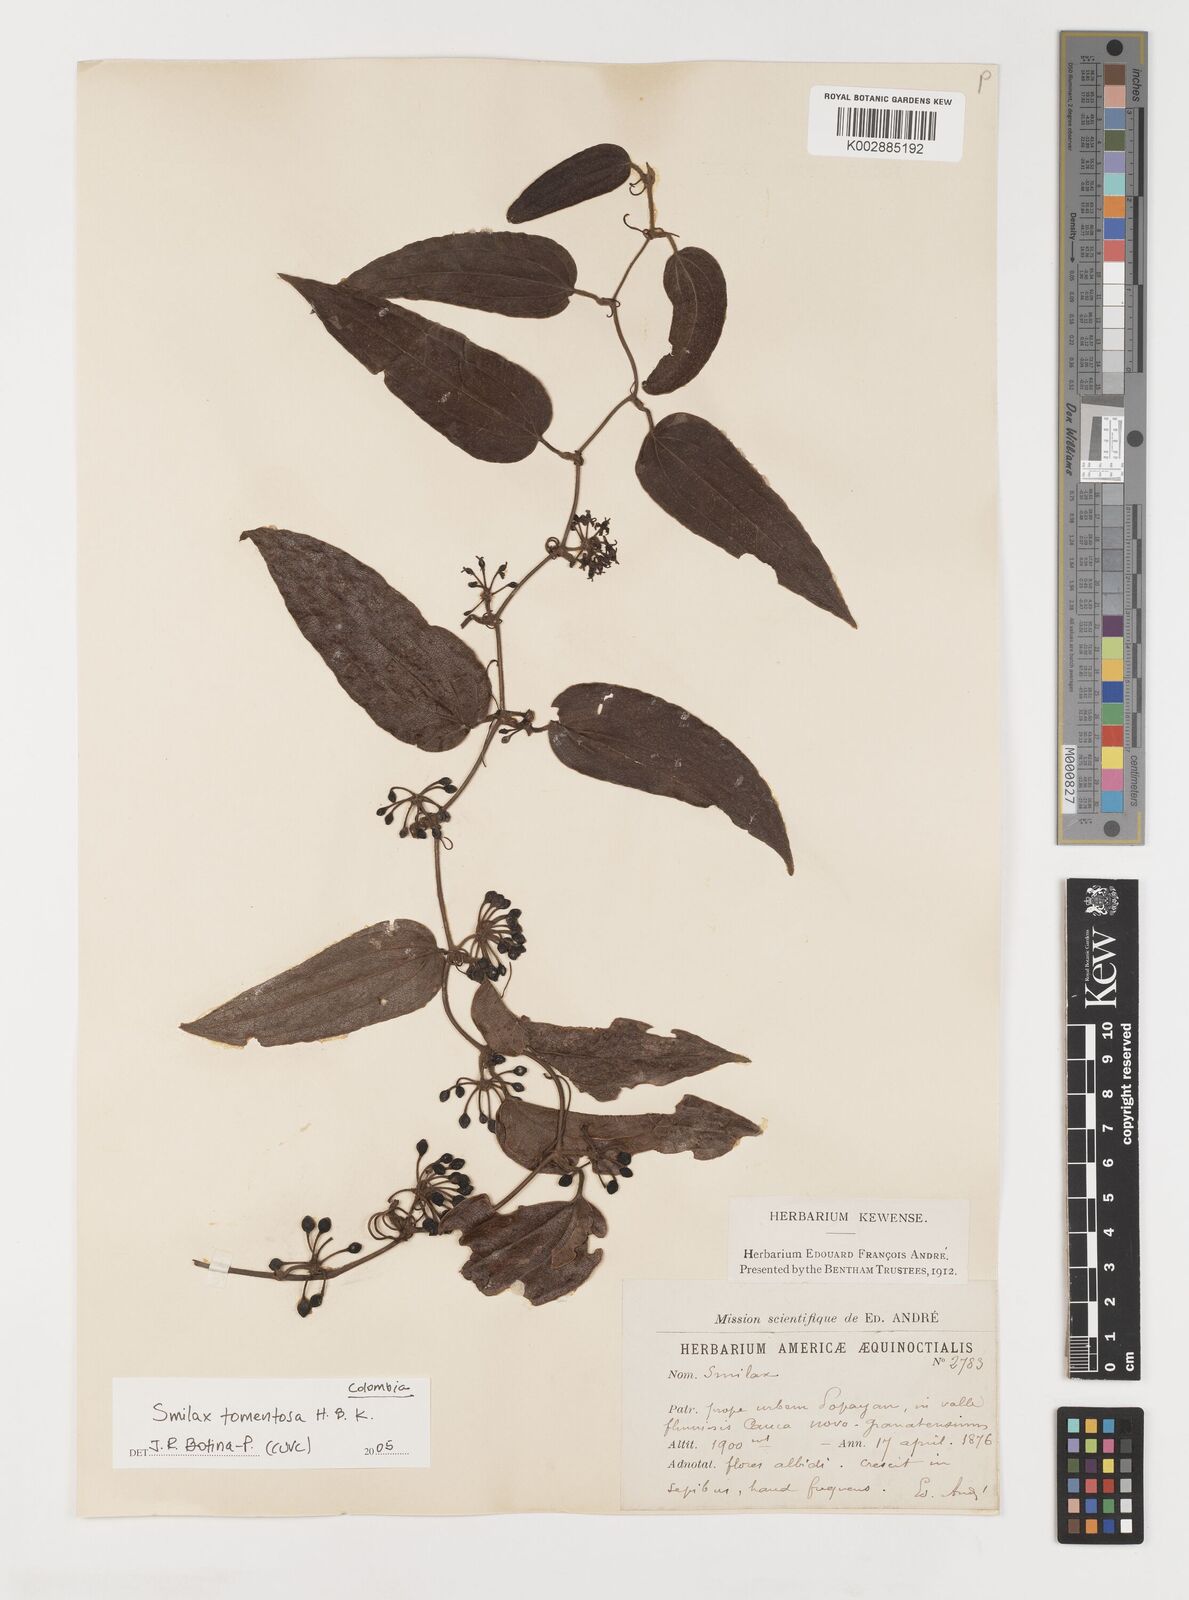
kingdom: Plantae
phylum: Tracheophyta
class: Liliopsida
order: Liliales
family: Smilacaceae
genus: Smilax
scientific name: Smilax tomentosa
